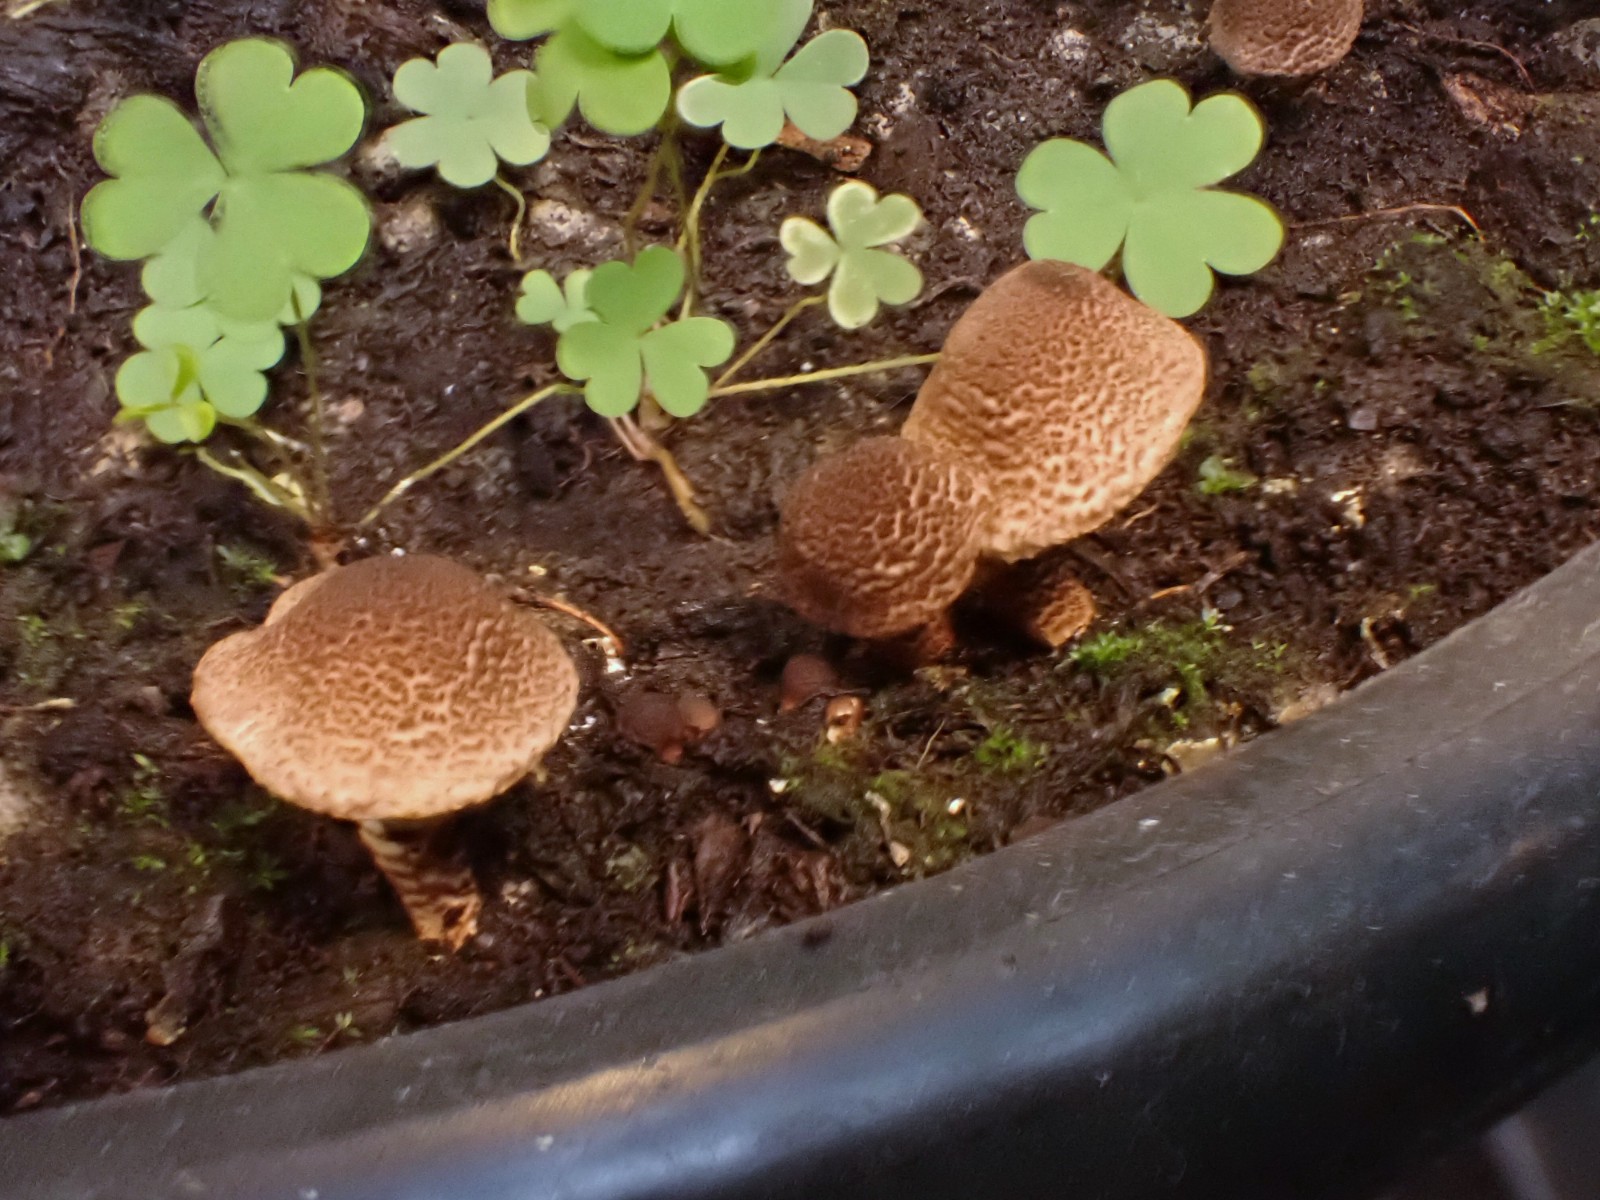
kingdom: Fungi
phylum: Basidiomycota
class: Agaricomycetes
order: Agaricales
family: Agaricaceae
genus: Lepiota
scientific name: Lepiota elaiophylla
